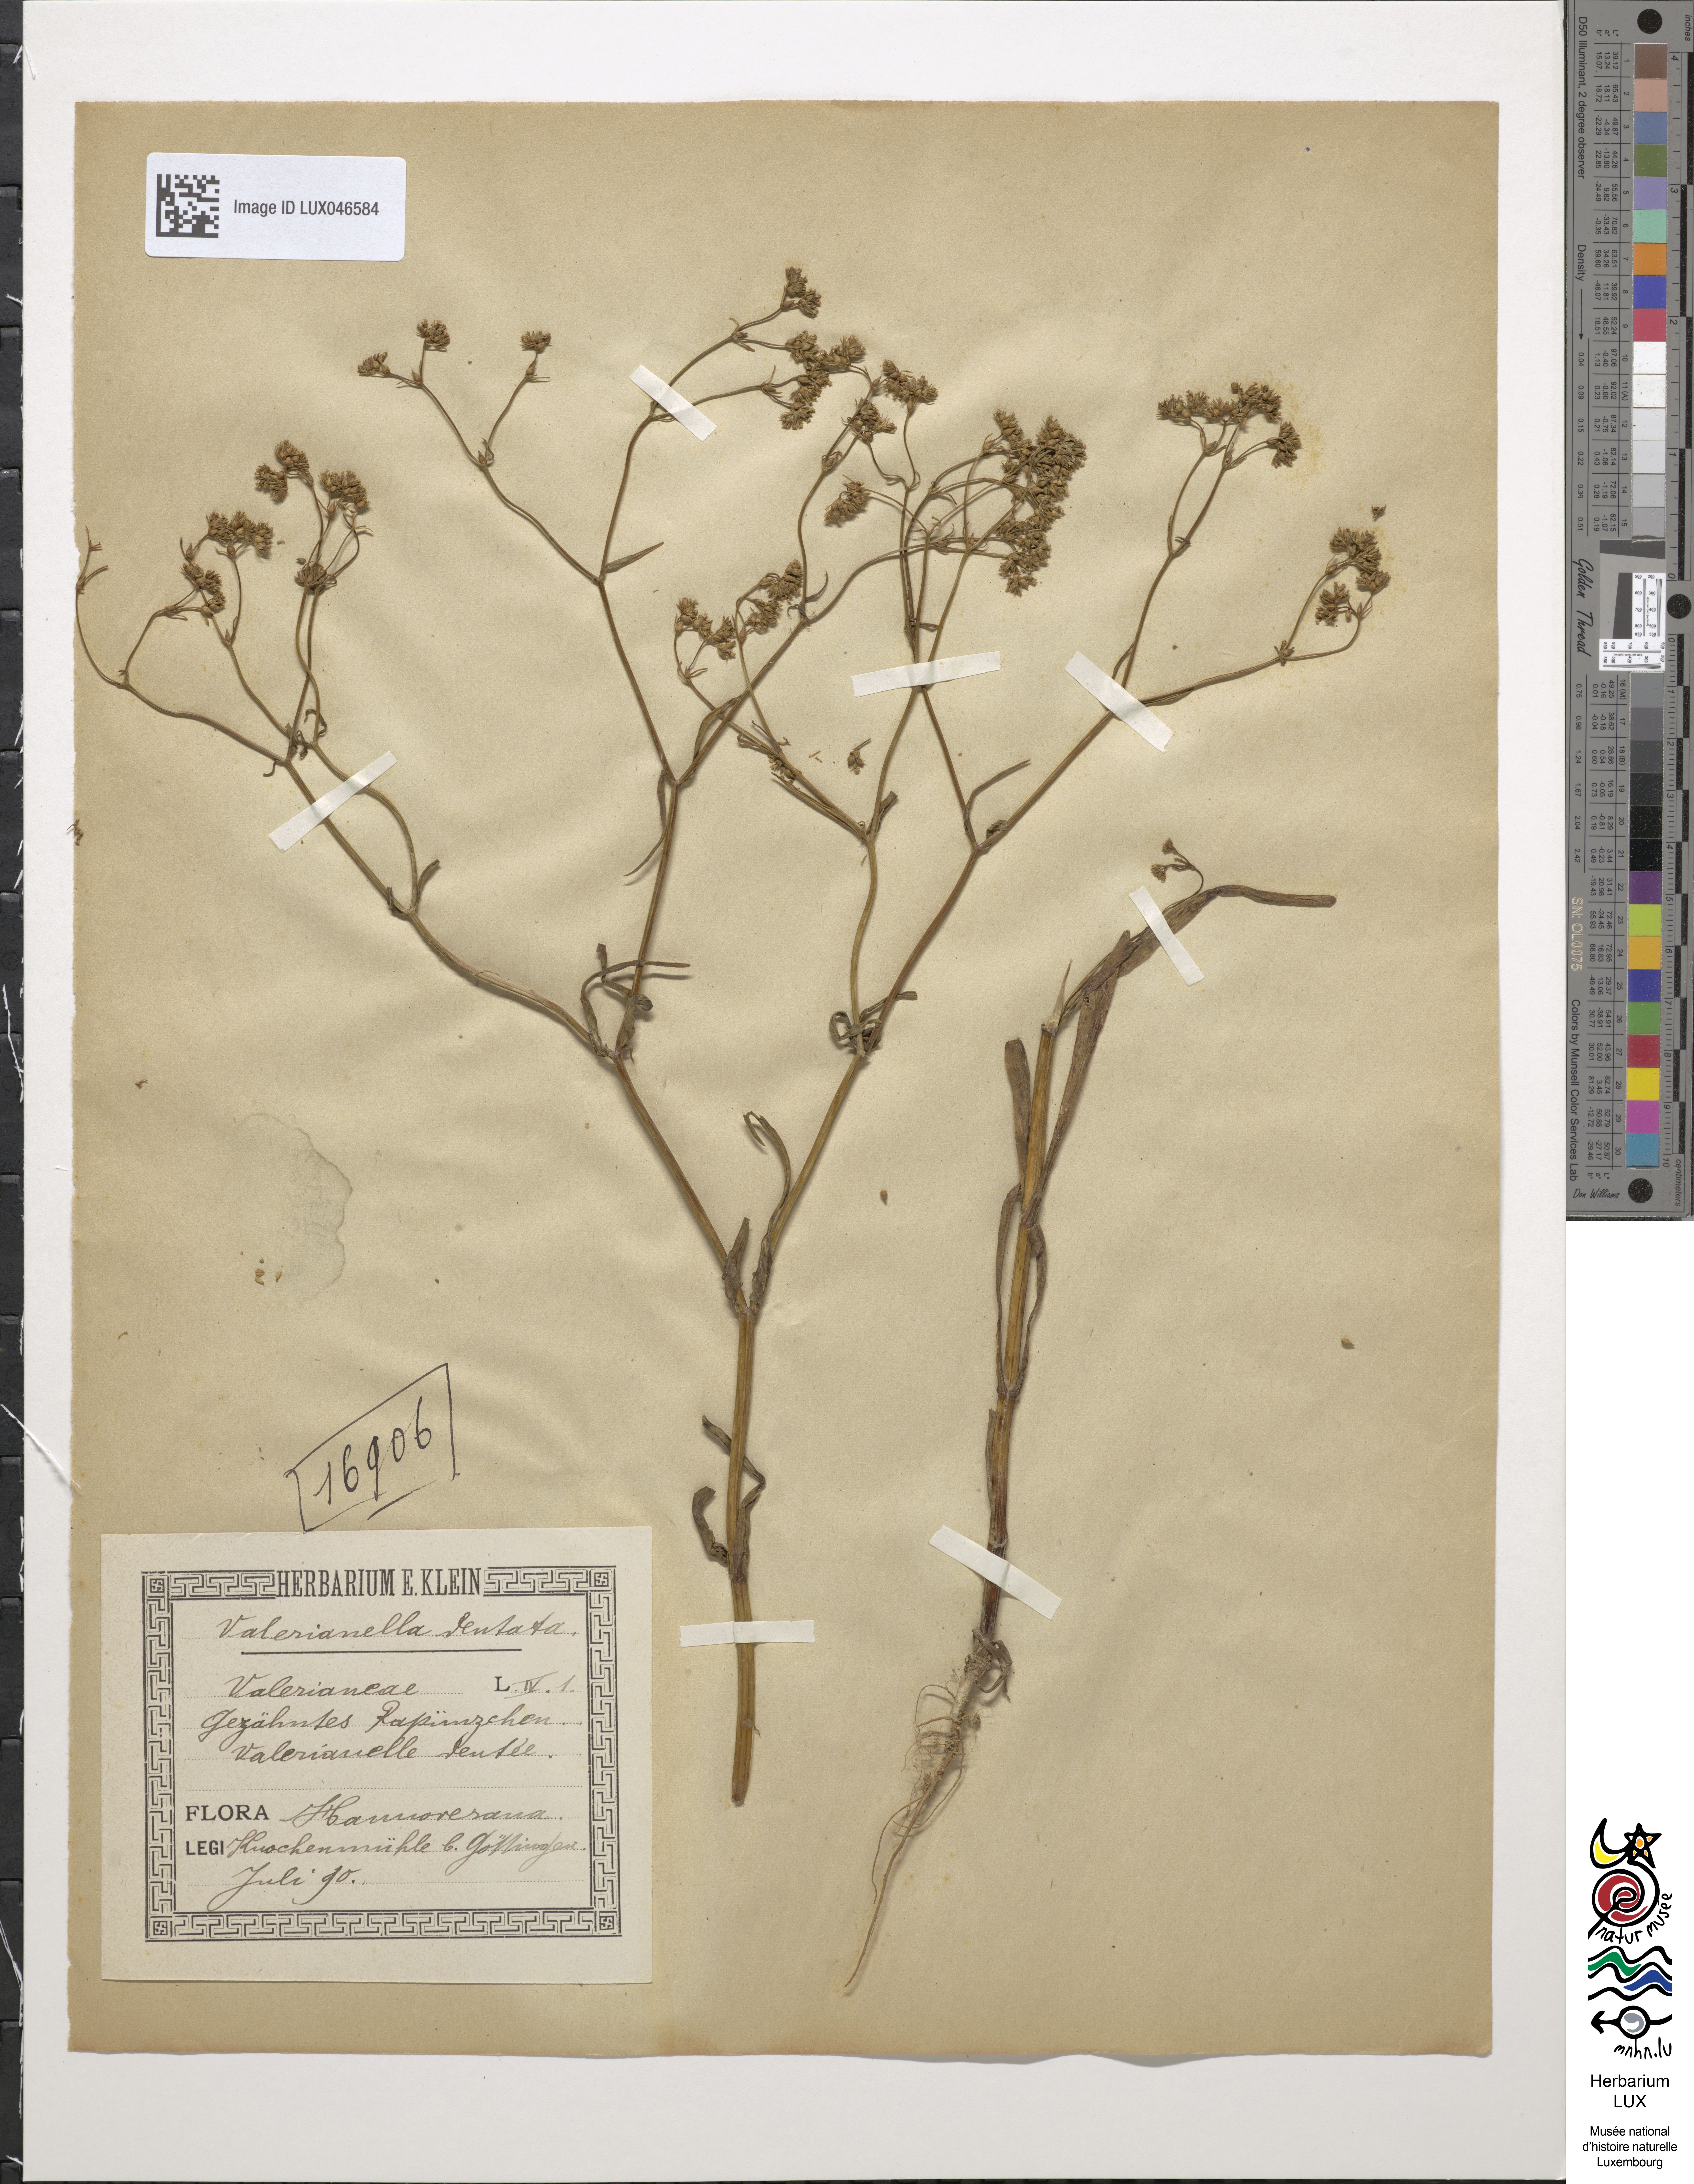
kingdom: Plantae
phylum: Tracheophyta
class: Magnoliopsida
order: Dipsacales
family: Caprifoliaceae
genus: Valerianella
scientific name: Valerianella dentata
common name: Narrow-fruited cornsalad
